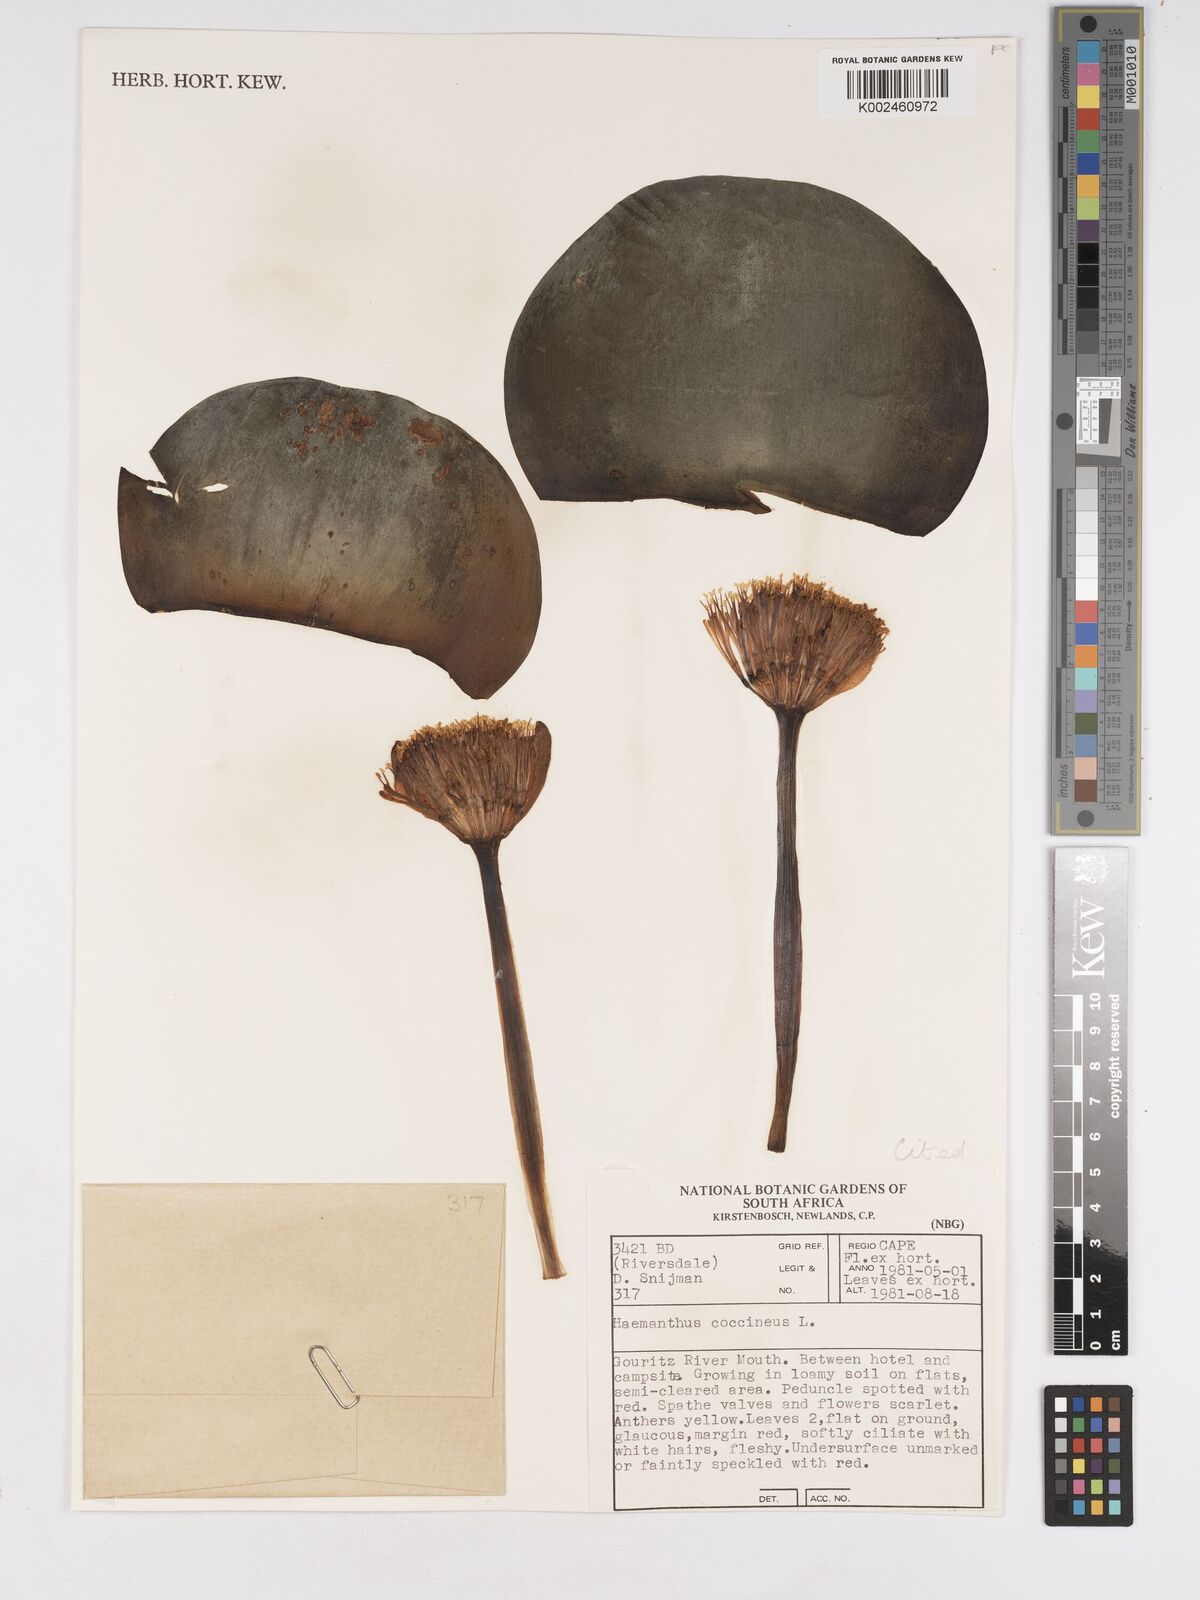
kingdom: Plantae
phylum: Tracheophyta
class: Liliopsida
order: Asparagales
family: Amaryllidaceae
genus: Haemanthus
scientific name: Haemanthus coccineus
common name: Cape-tulip
